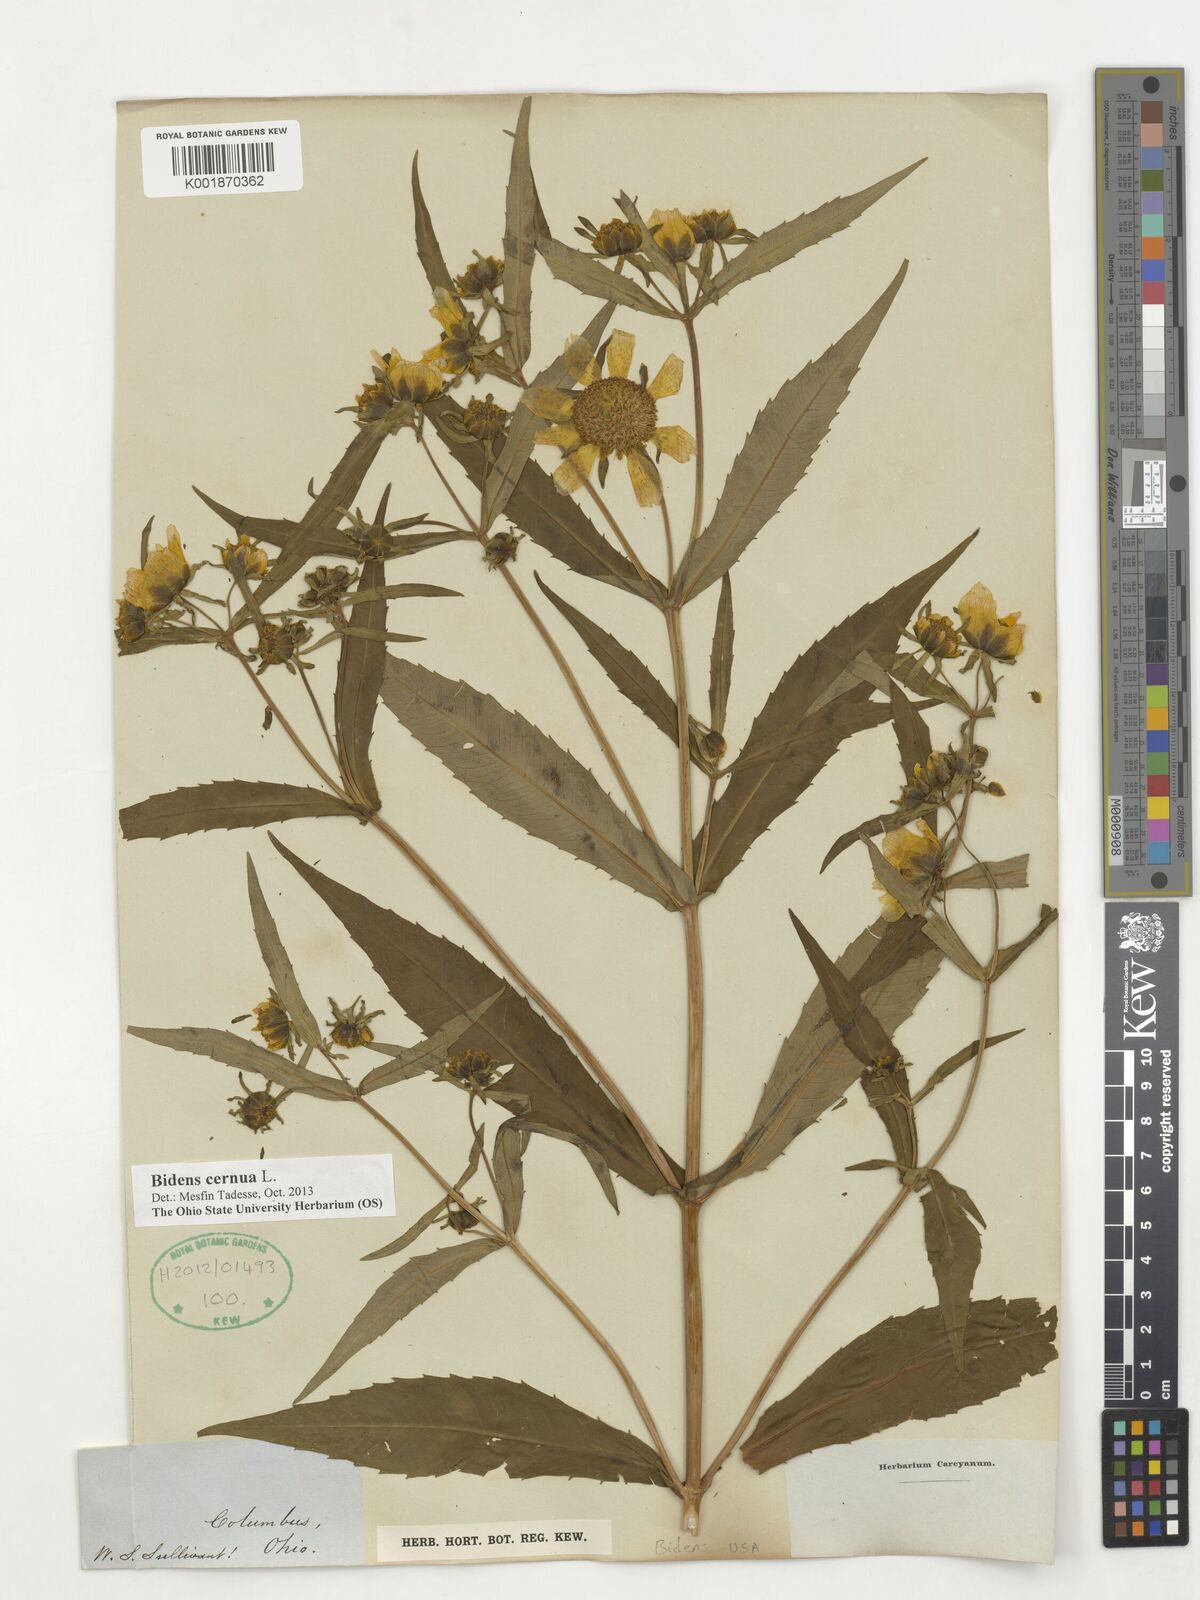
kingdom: Plantae
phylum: Tracheophyta
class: Magnoliopsida
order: Asterales
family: Asteraceae
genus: Bidens
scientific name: Bidens cernua
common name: Nodding bur-marigold
